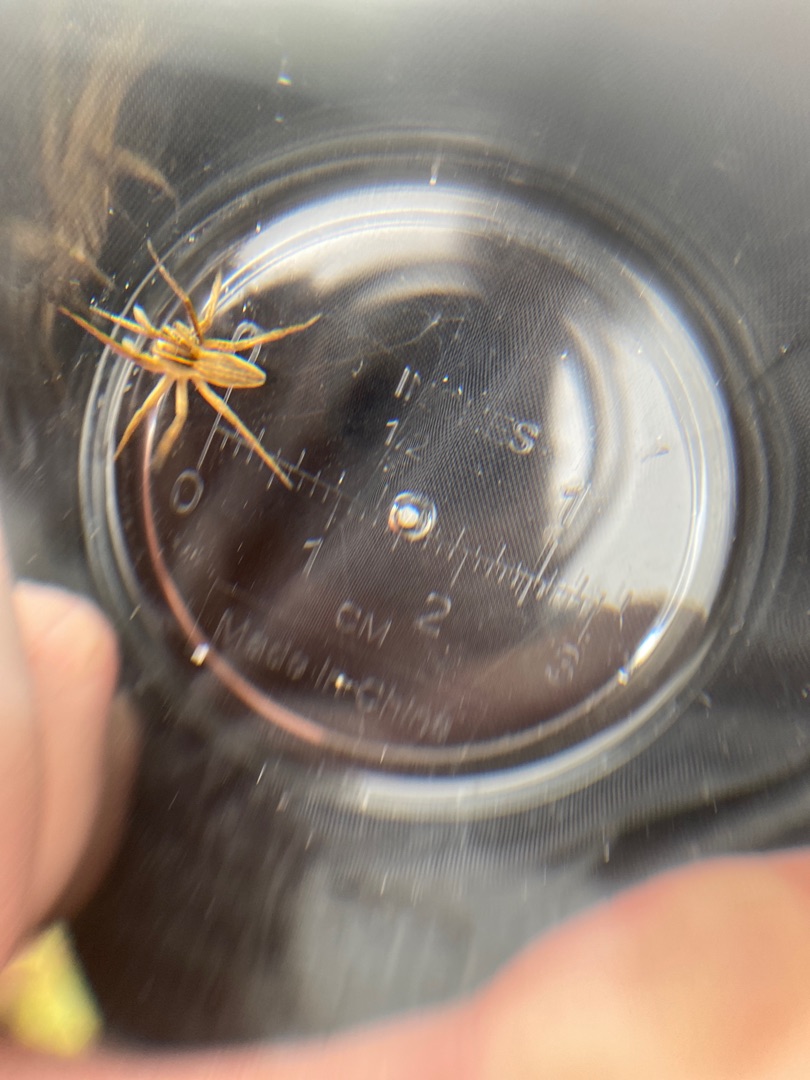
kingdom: Animalia
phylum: Arthropoda
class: Arachnida
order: Araneae
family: Pisauridae
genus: Pisaura
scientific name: Pisaura mirabilis
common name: Almindelig rovedderkop
